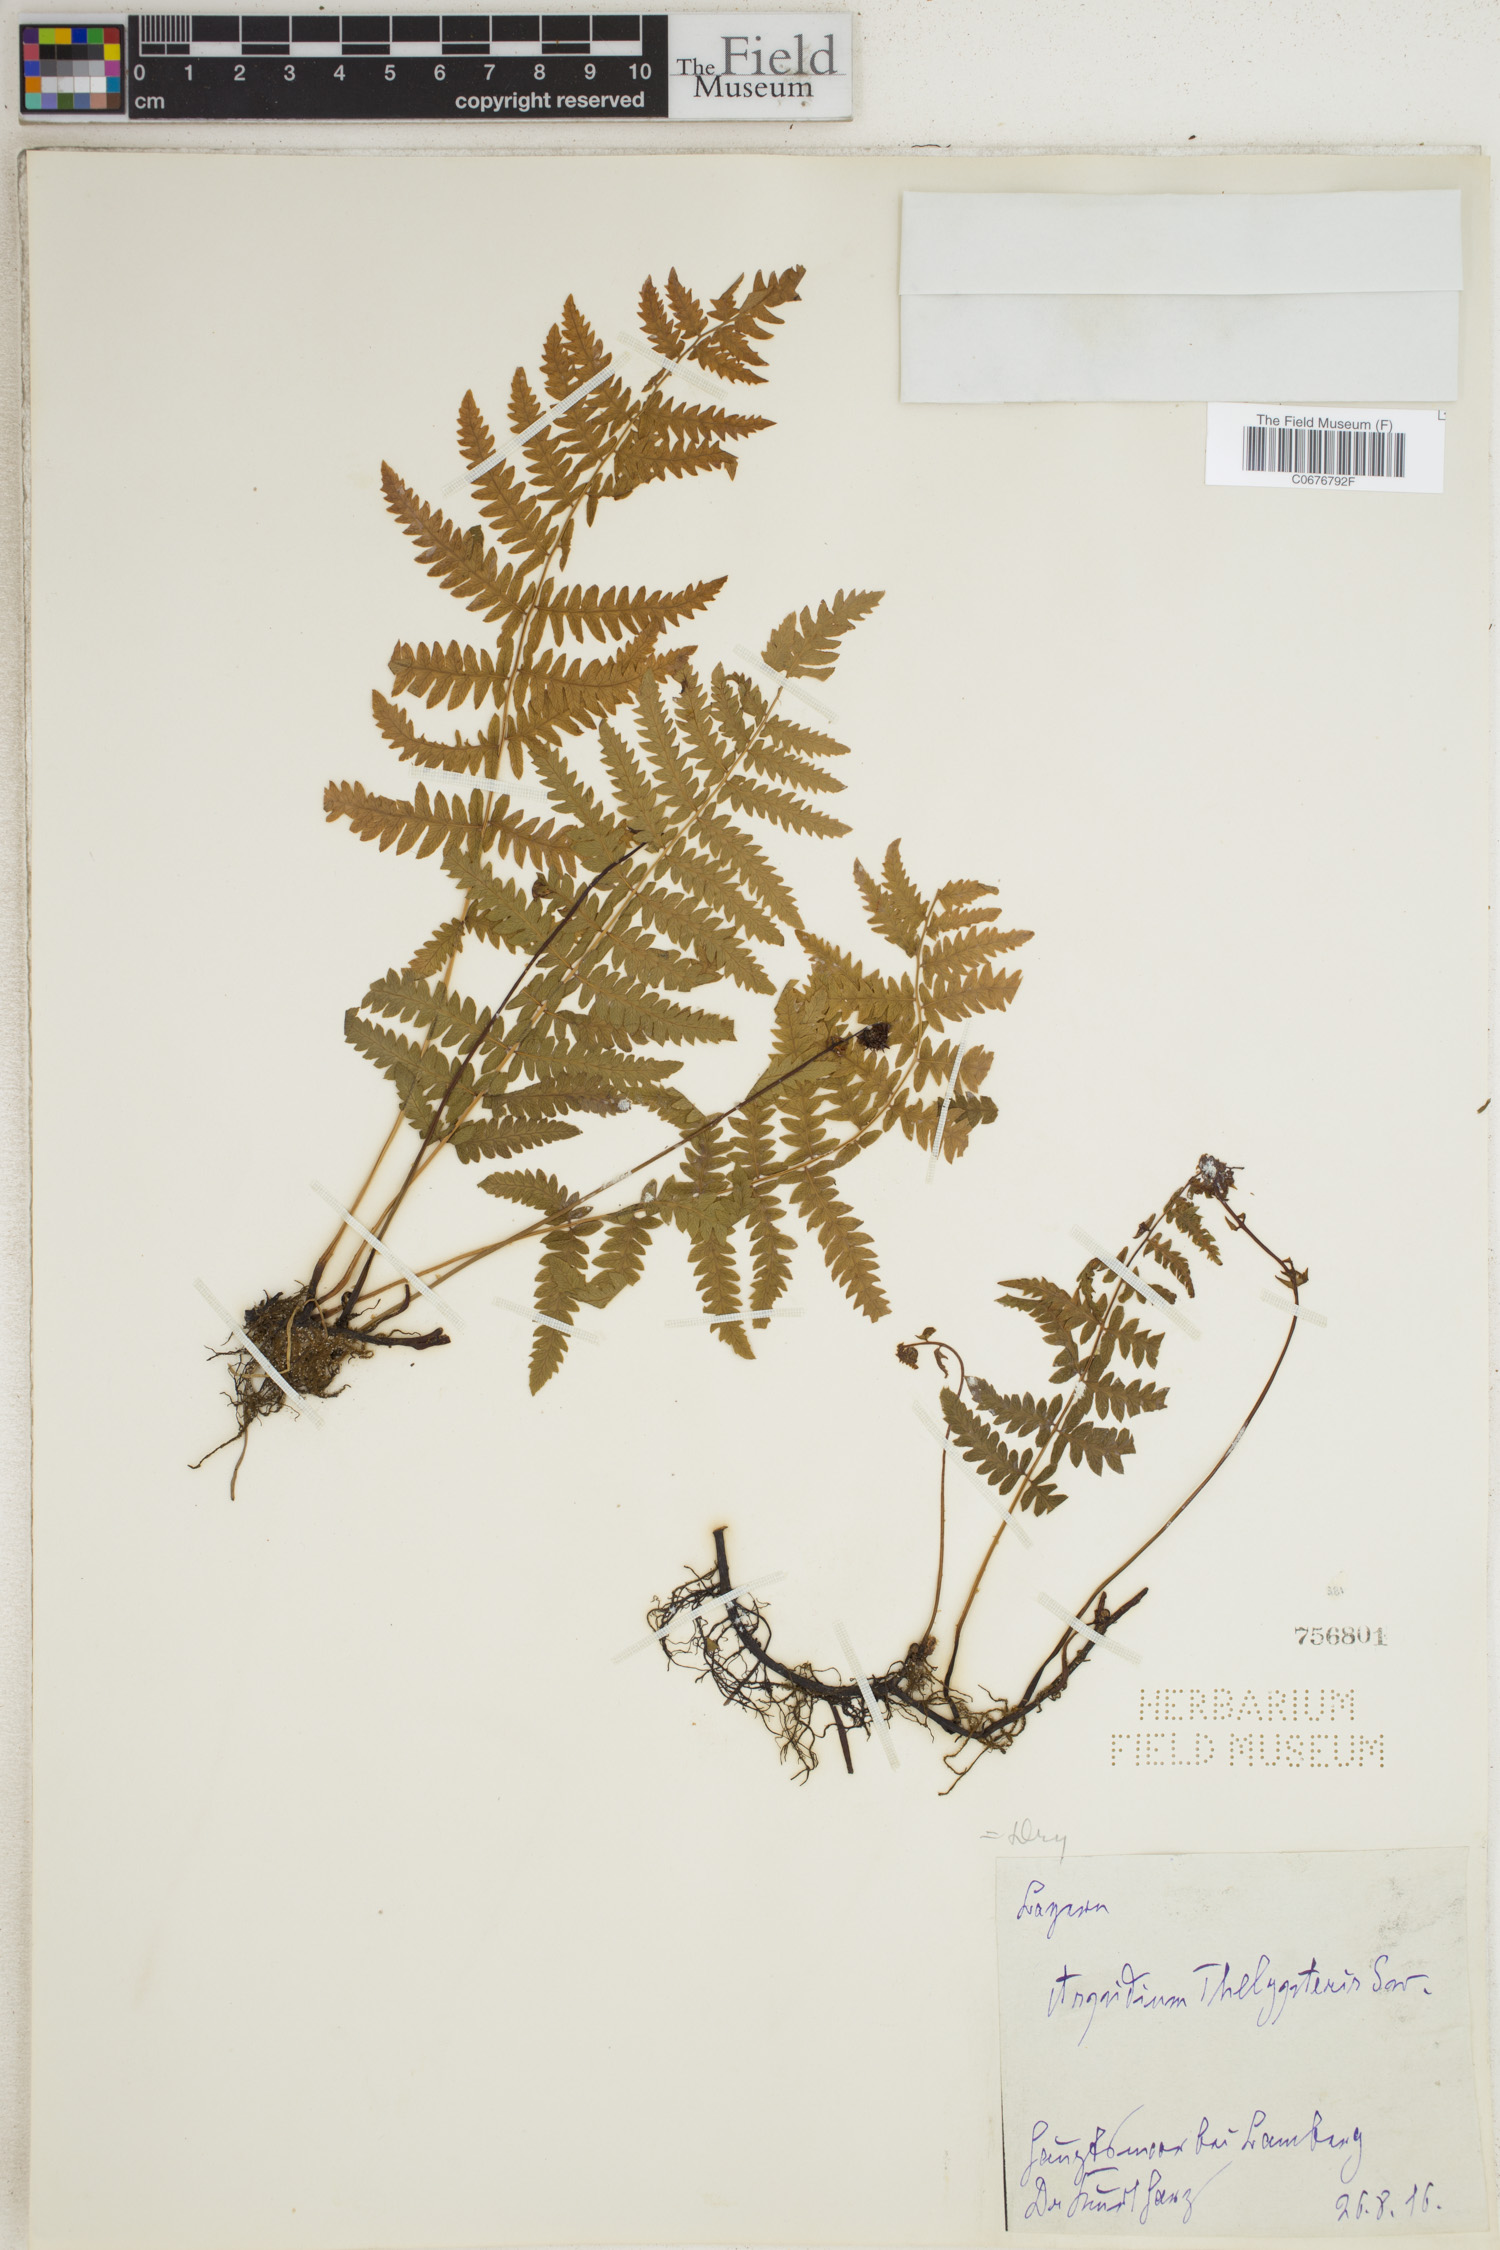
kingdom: Plantae
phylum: Tracheophyta
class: Polypodiopsida
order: Polypodiales
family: Thelypteridaceae
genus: Thelypteris
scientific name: Thelypteris palustris
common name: Marsh fern
